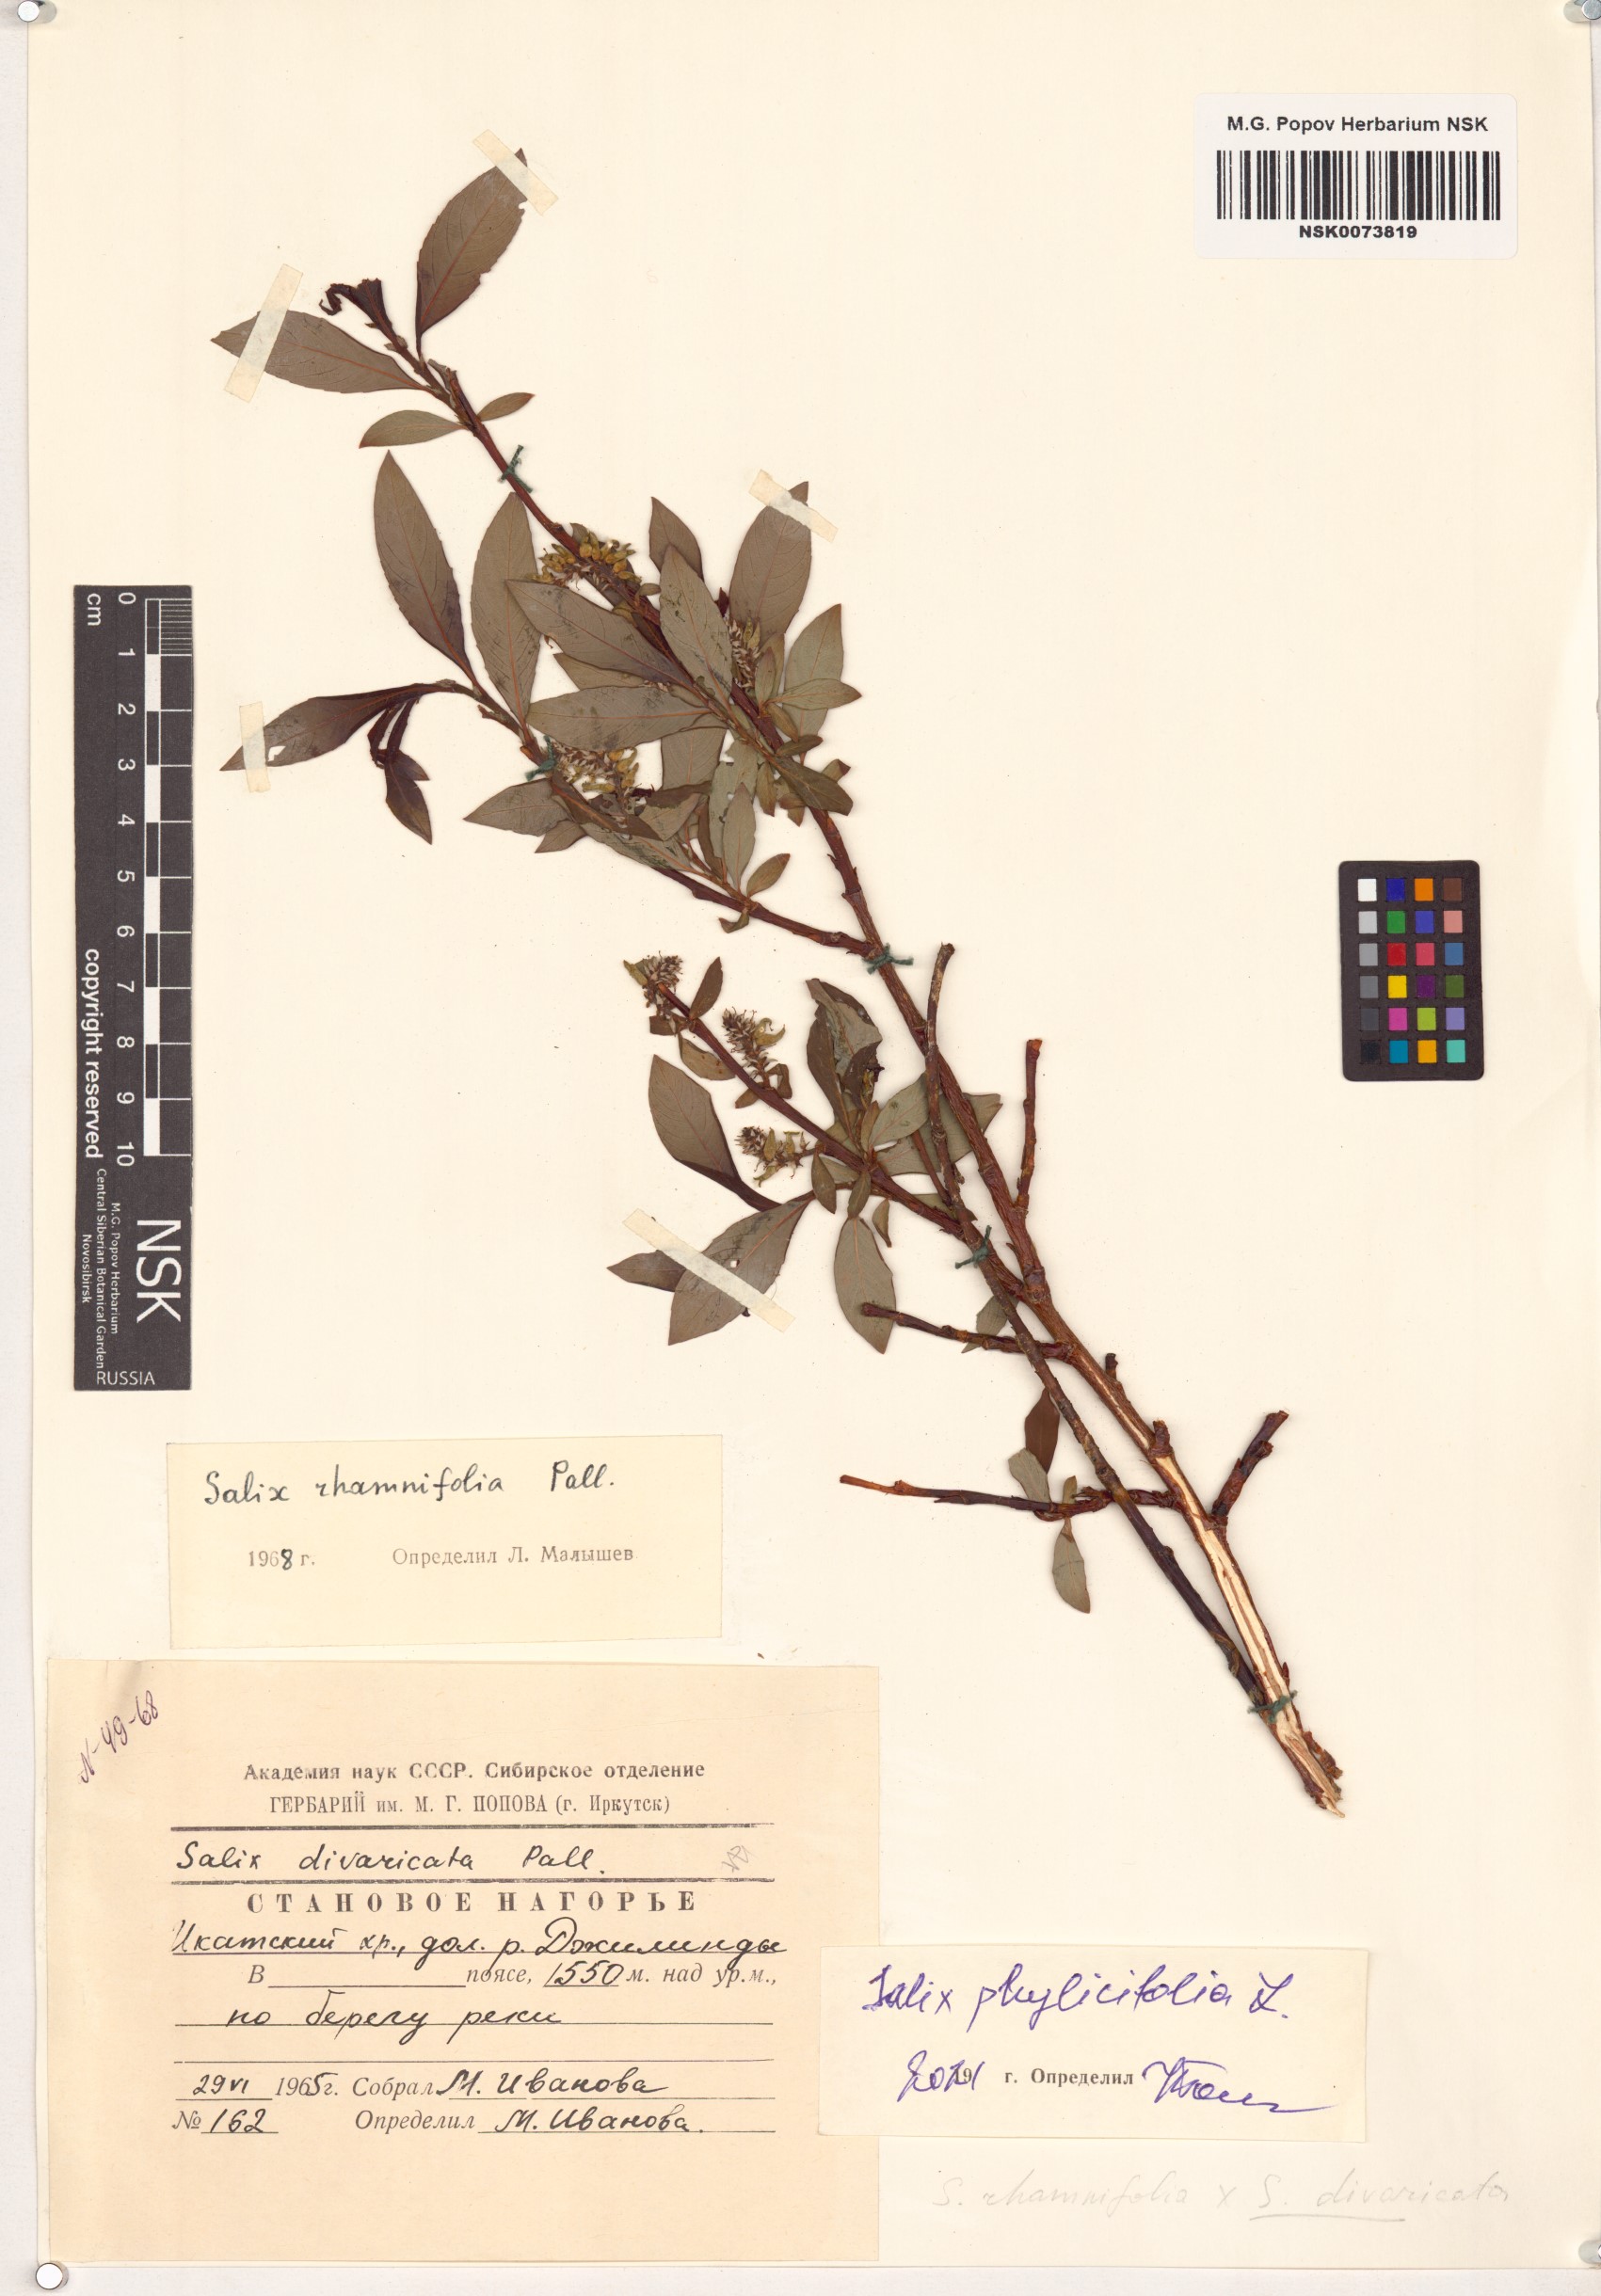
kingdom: Plantae
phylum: Tracheophyta
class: Magnoliopsida
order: Malpighiales
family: Salicaceae
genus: Salix
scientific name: Salix phylicifolia
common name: Tea-leaved willow
